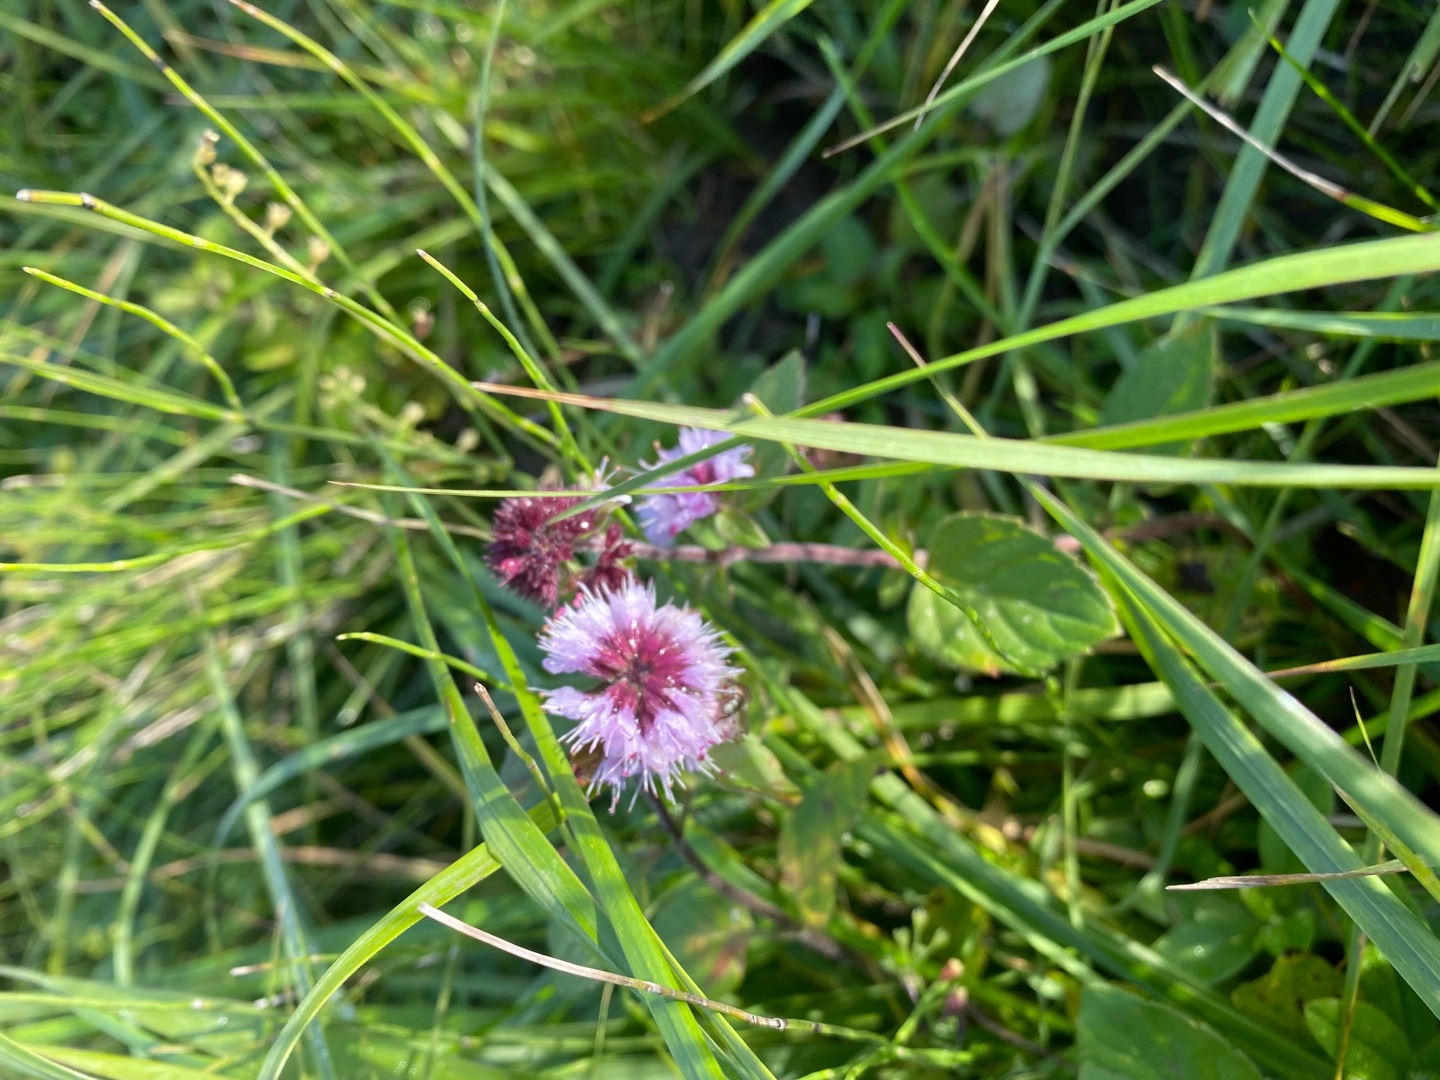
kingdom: Plantae
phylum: Tracheophyta
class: Magnoliopsida
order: Lamiales
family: Lamiaceae
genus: Mentha
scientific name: Mentha aquatica
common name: Vand-mynte
